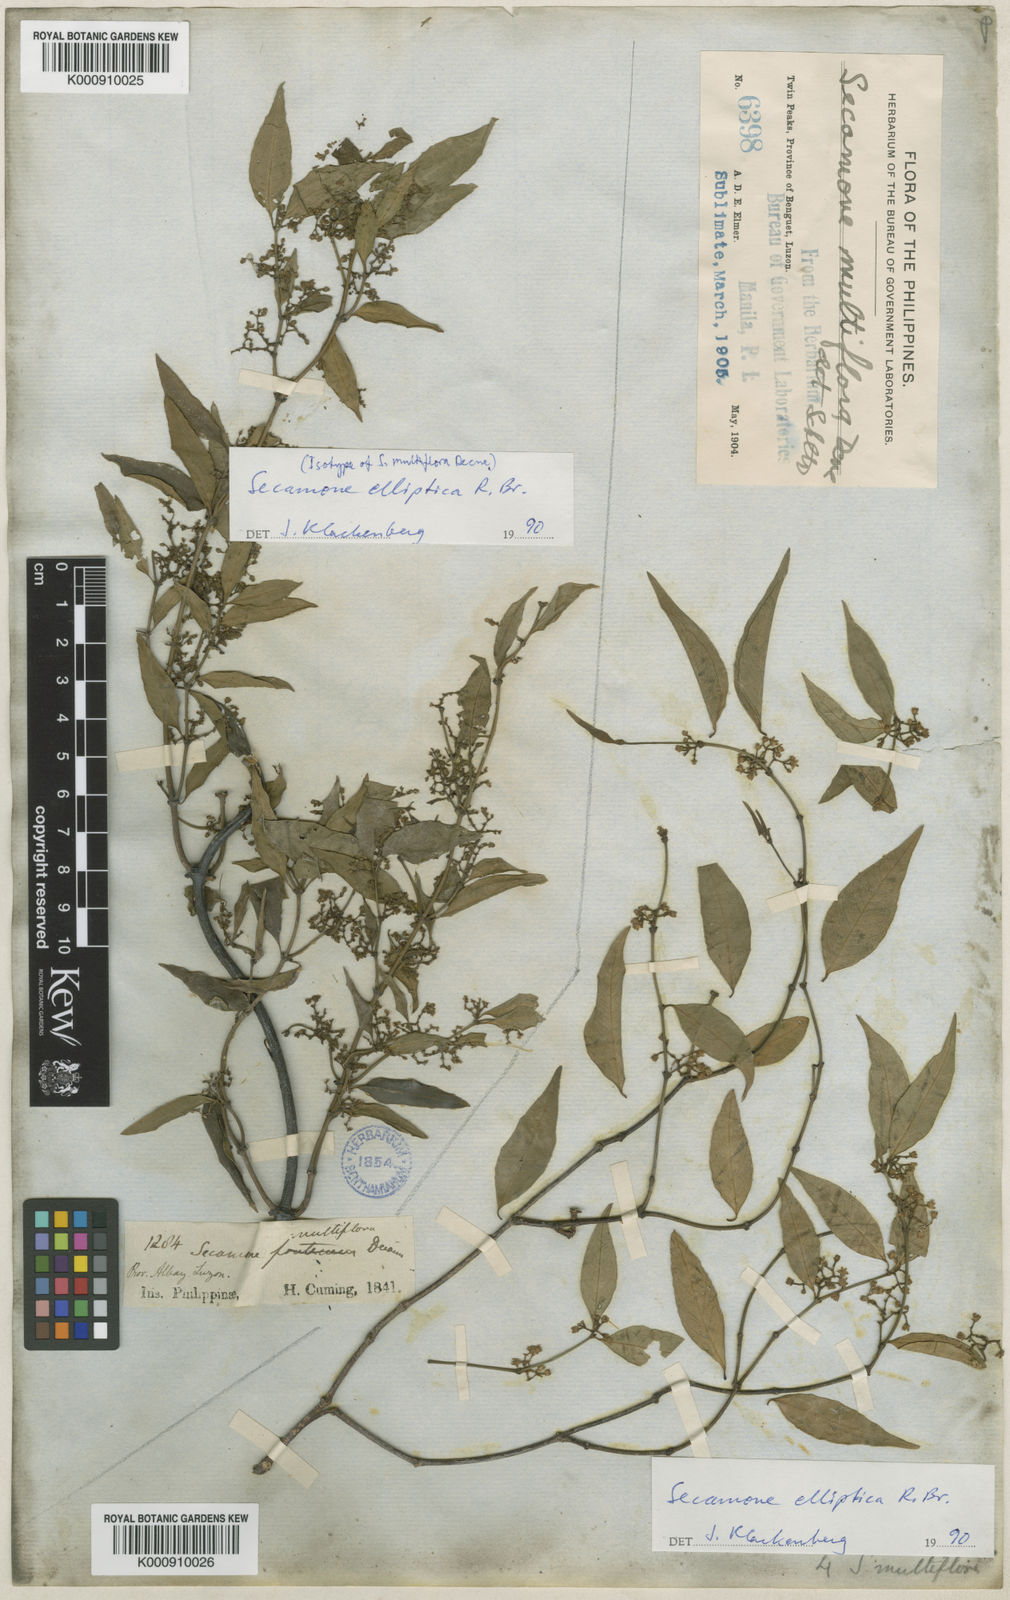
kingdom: Plantae
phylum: Tracheophyta
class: Magnoliopsida
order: Gentianales
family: Apocynaceae
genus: Secamone
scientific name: Secamone elliptica
